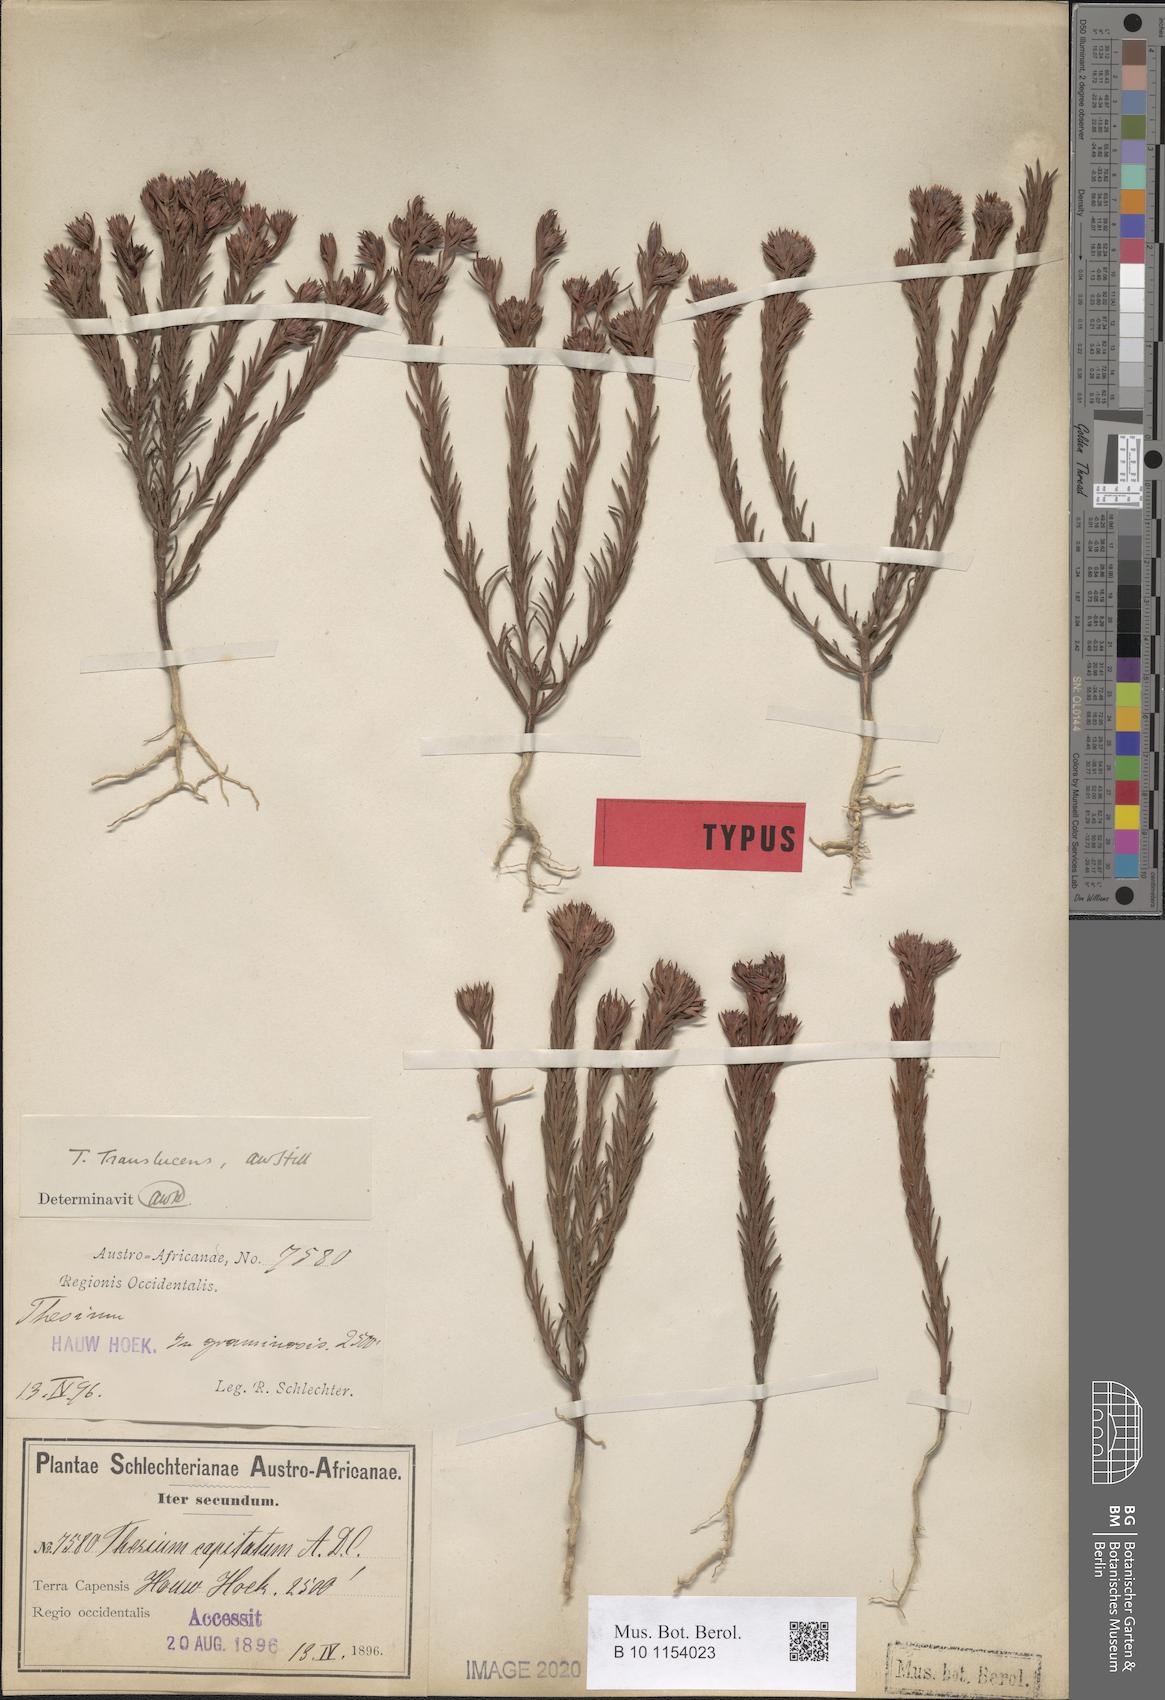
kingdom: Plantae
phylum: Tracheophyta
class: Magnoliopsida
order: Santalales
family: Thesiaceae
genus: Thesium
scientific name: Thesium translucens
